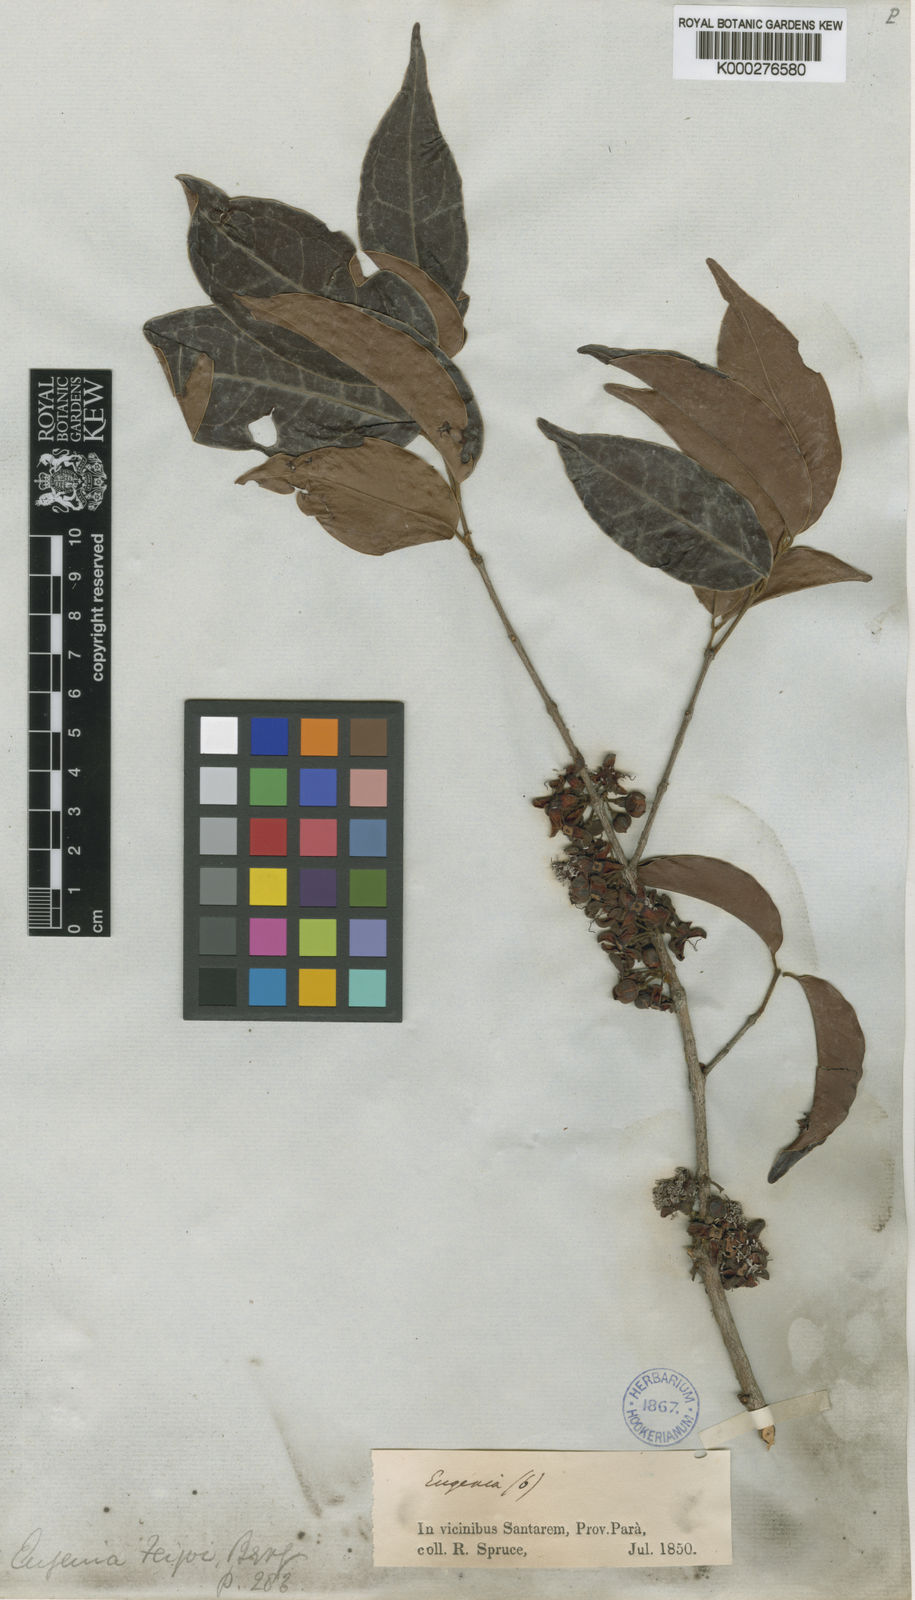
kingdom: Plantae
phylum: Tracheophyta
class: Magnoliopsida
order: Myrtales
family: Myrtaceae
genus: Eugenia
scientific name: Eugenia moschata
